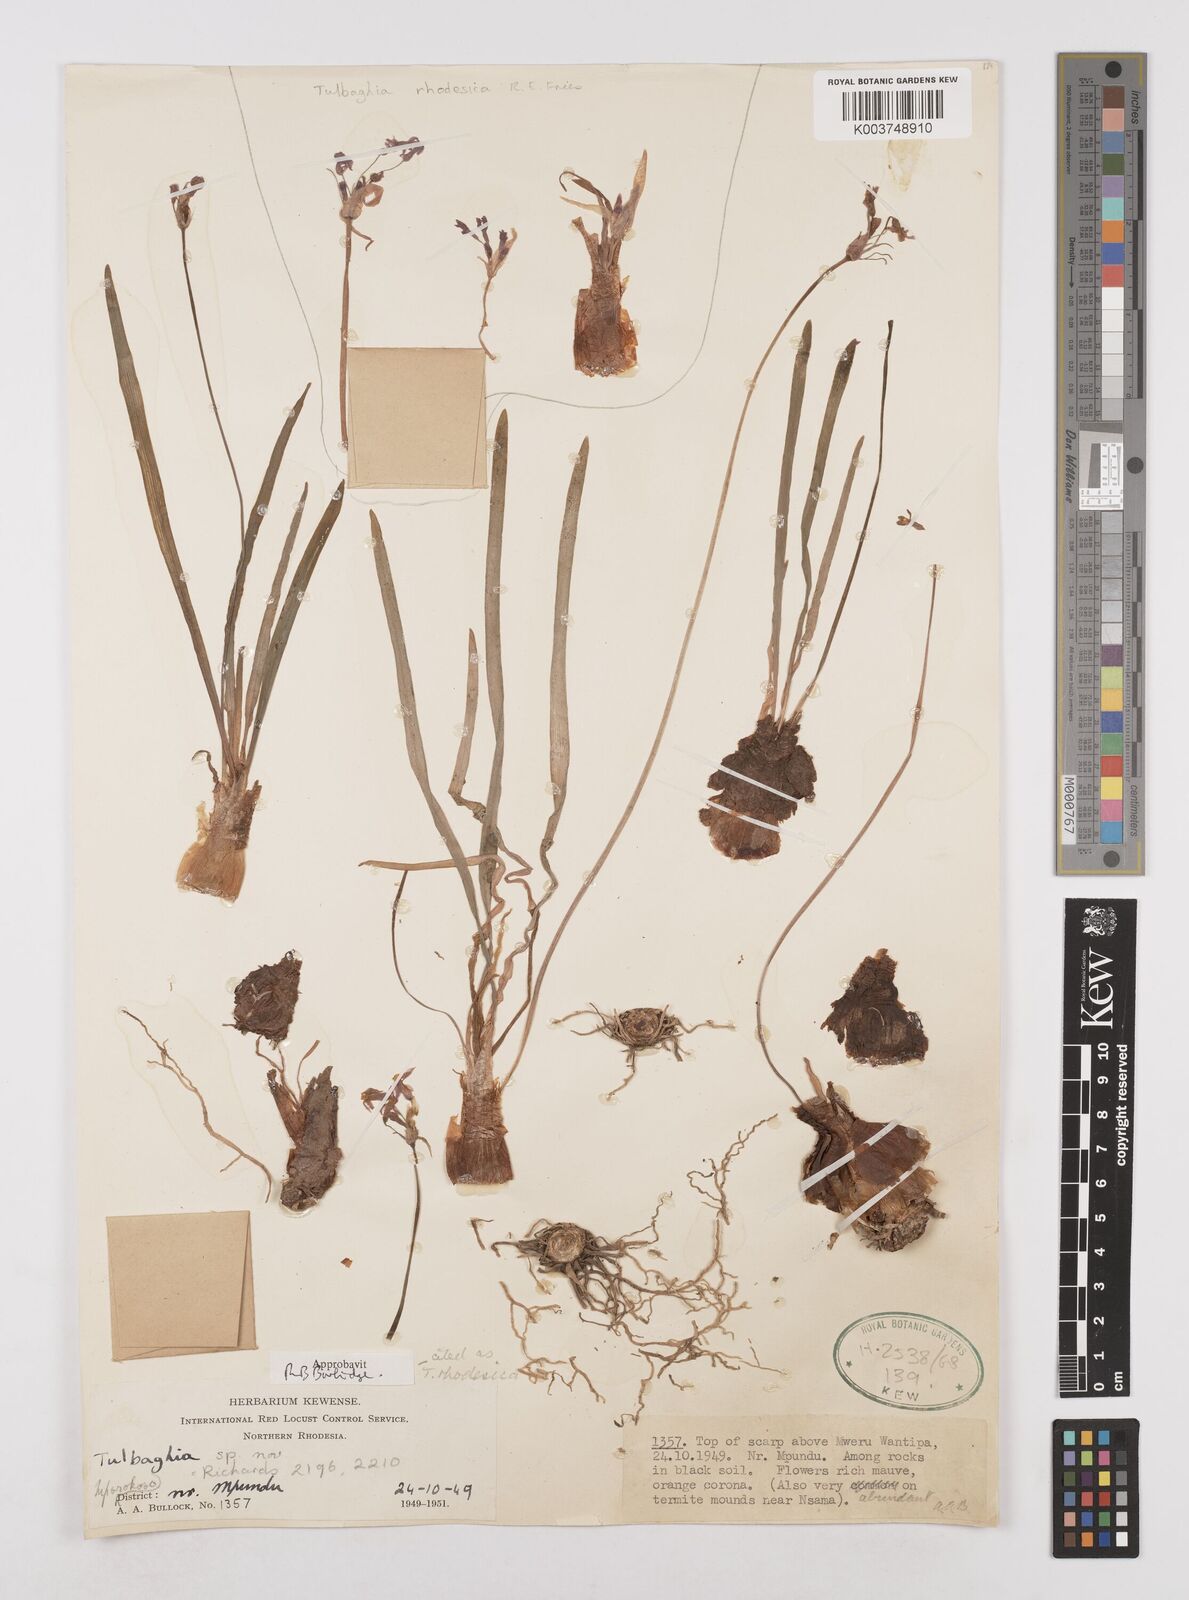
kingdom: Plantae
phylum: Tracheophyta
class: Liliopsida
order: Asparagales
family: Amaryllidaceae
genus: Tulbaghia
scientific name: Tulbaghia rhodesica
